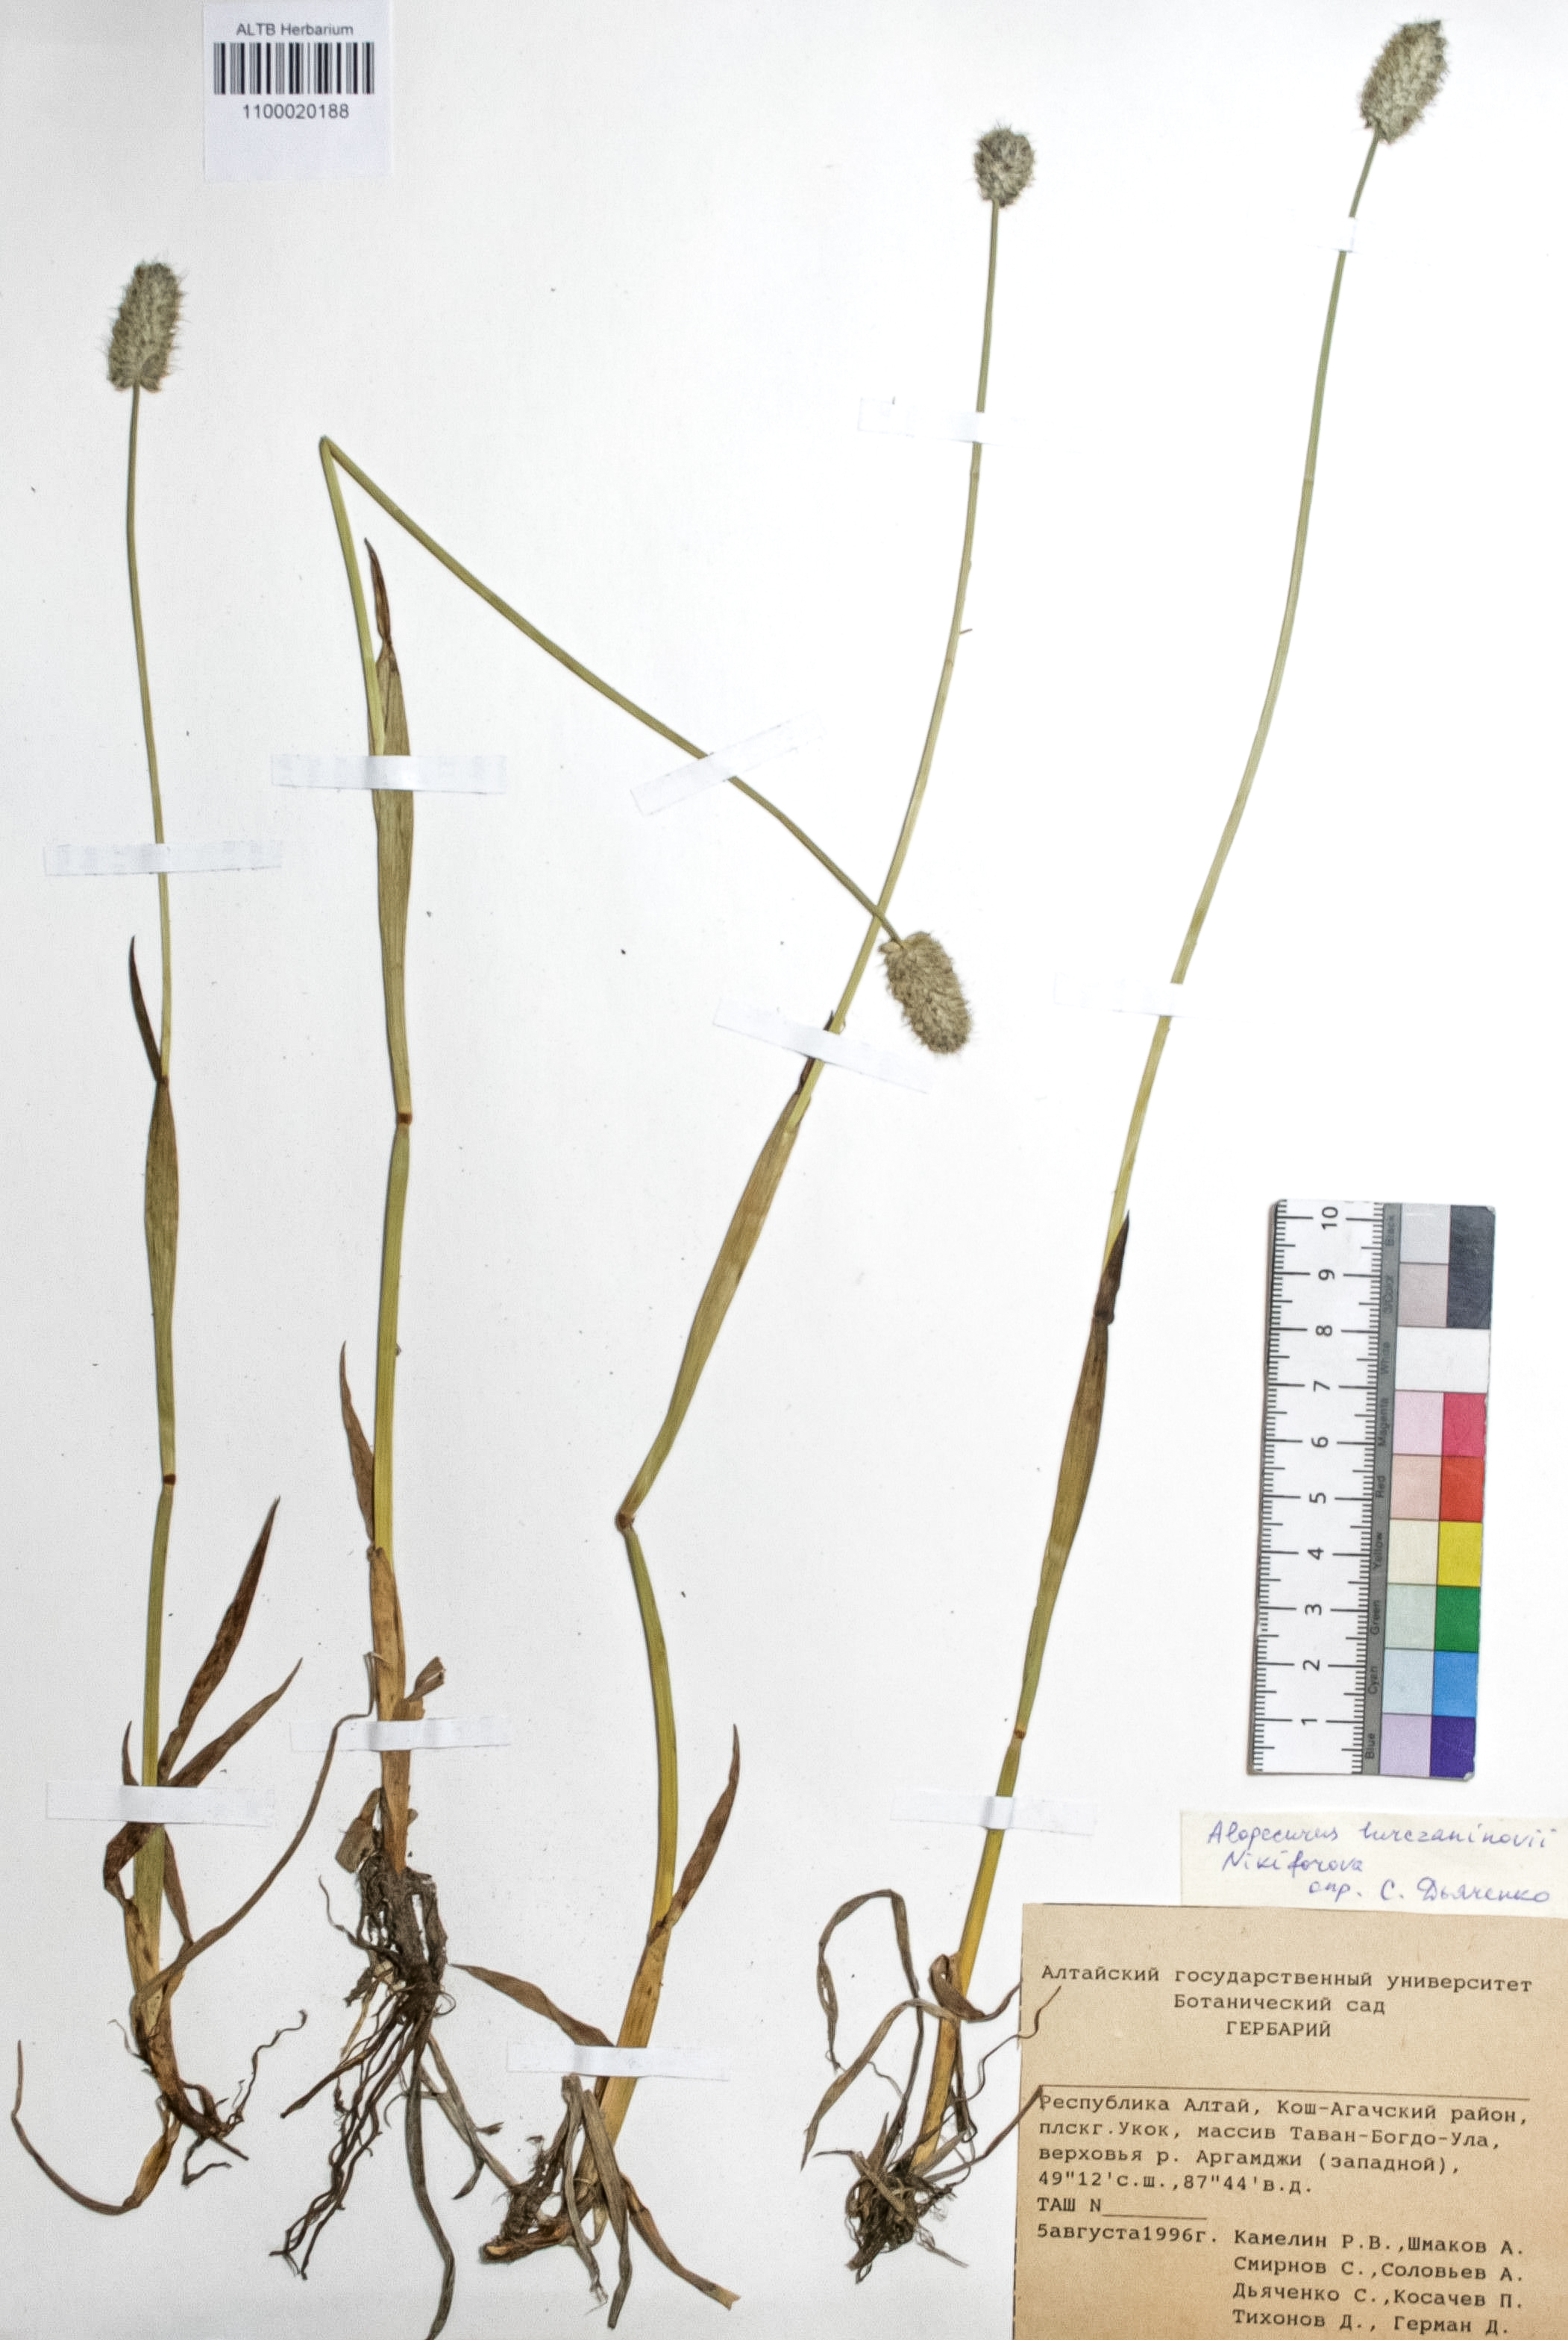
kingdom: Plantae
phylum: Tracheophyta
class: Liliopsida
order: Poales
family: Poaceae
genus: Alopecurus
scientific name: Alopecurus turczaninovii
